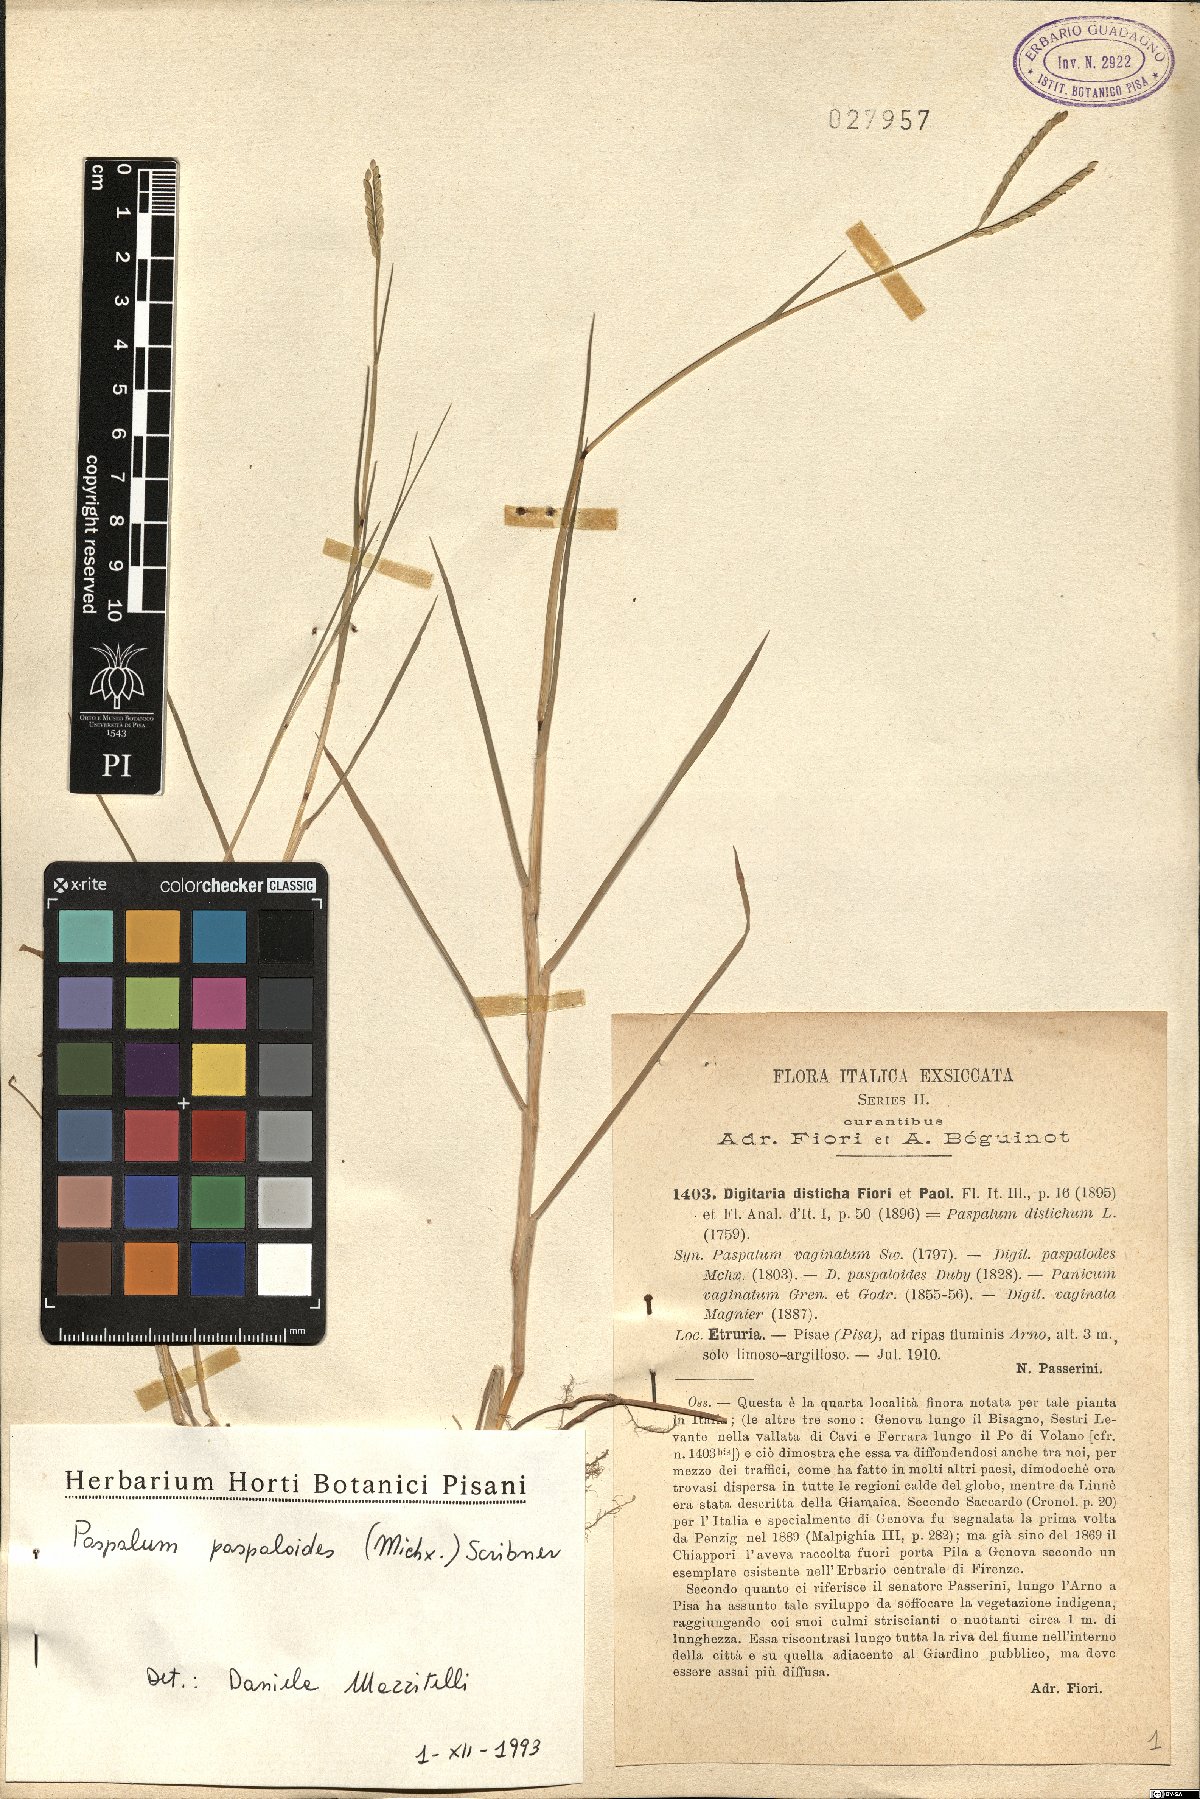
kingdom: Plantae
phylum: Tracheophyta
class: Liliopsida
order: Poales
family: Poaceae
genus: Paspalum
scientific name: Paspalum distichum
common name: Knotgrass
